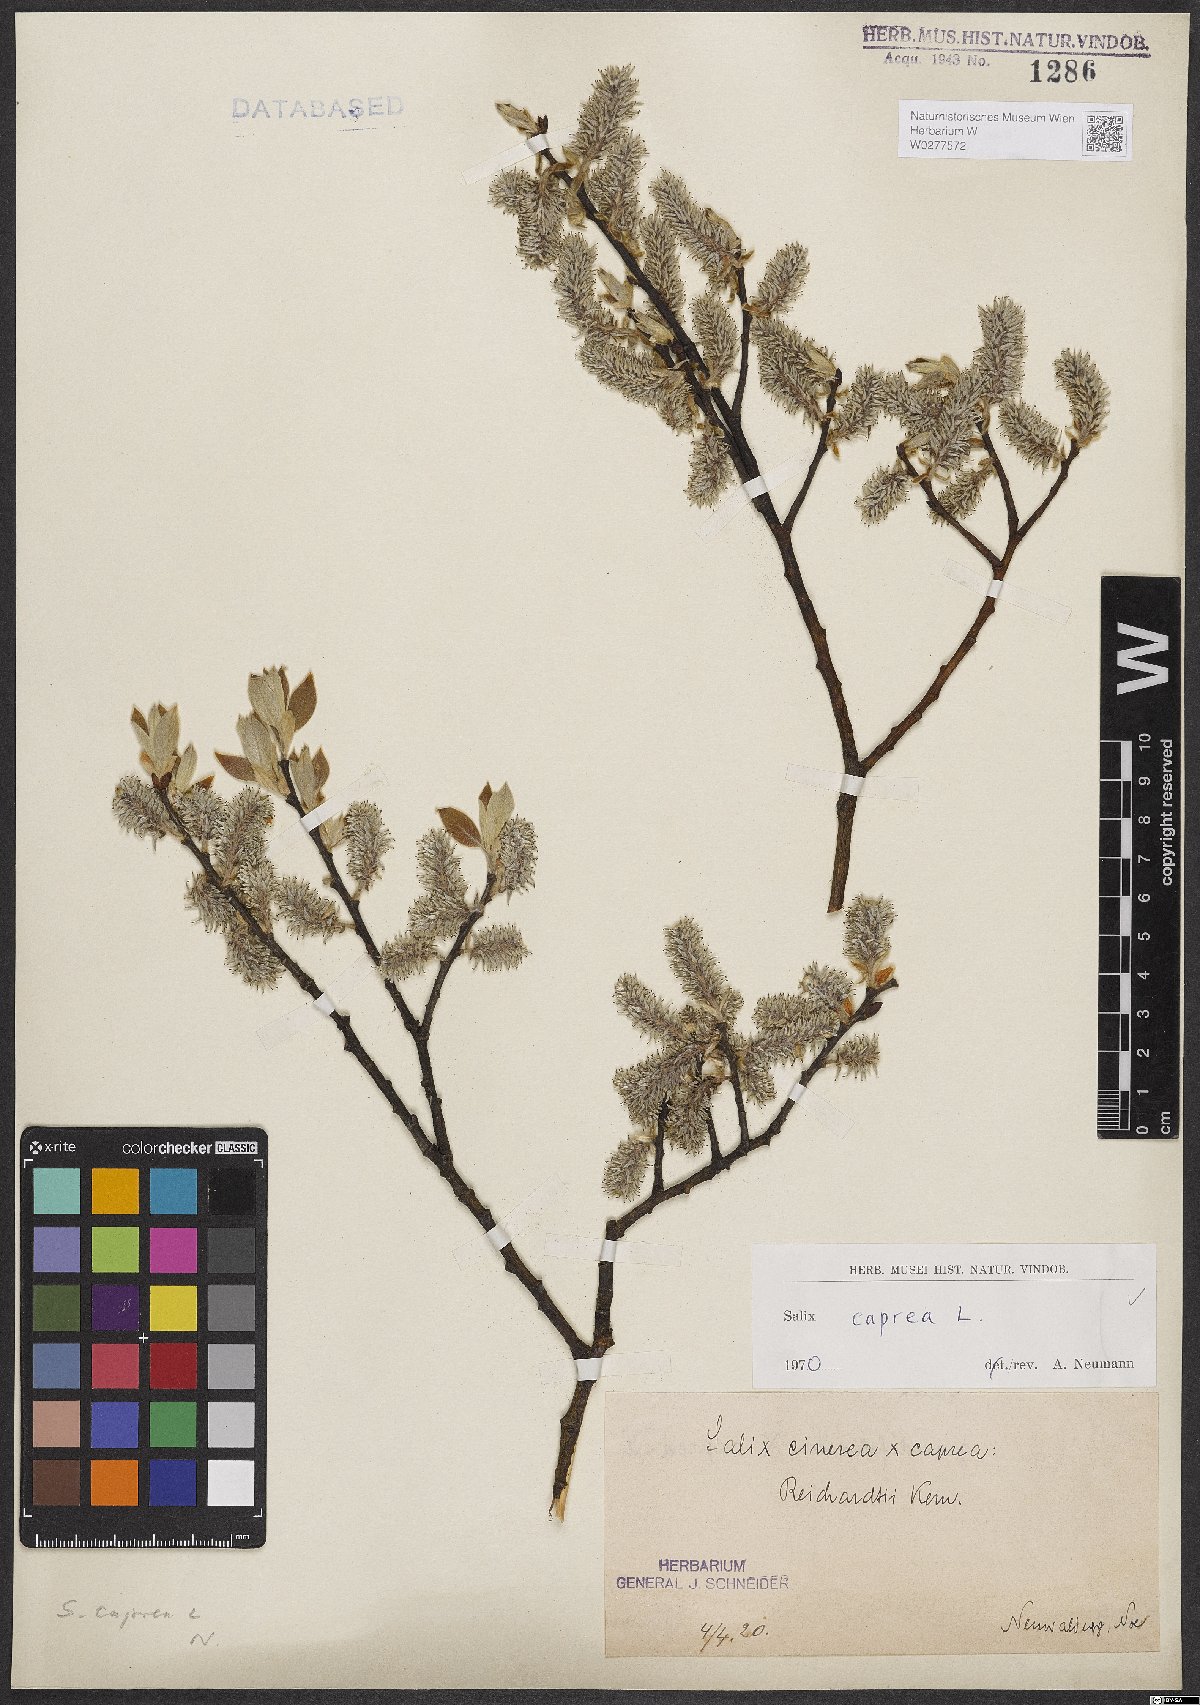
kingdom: Plantae
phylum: Tracheophyta
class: Magnoliopsida
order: Malpighiales
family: Salicaceae
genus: Salix
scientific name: Salix caprea
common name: Goat willow
